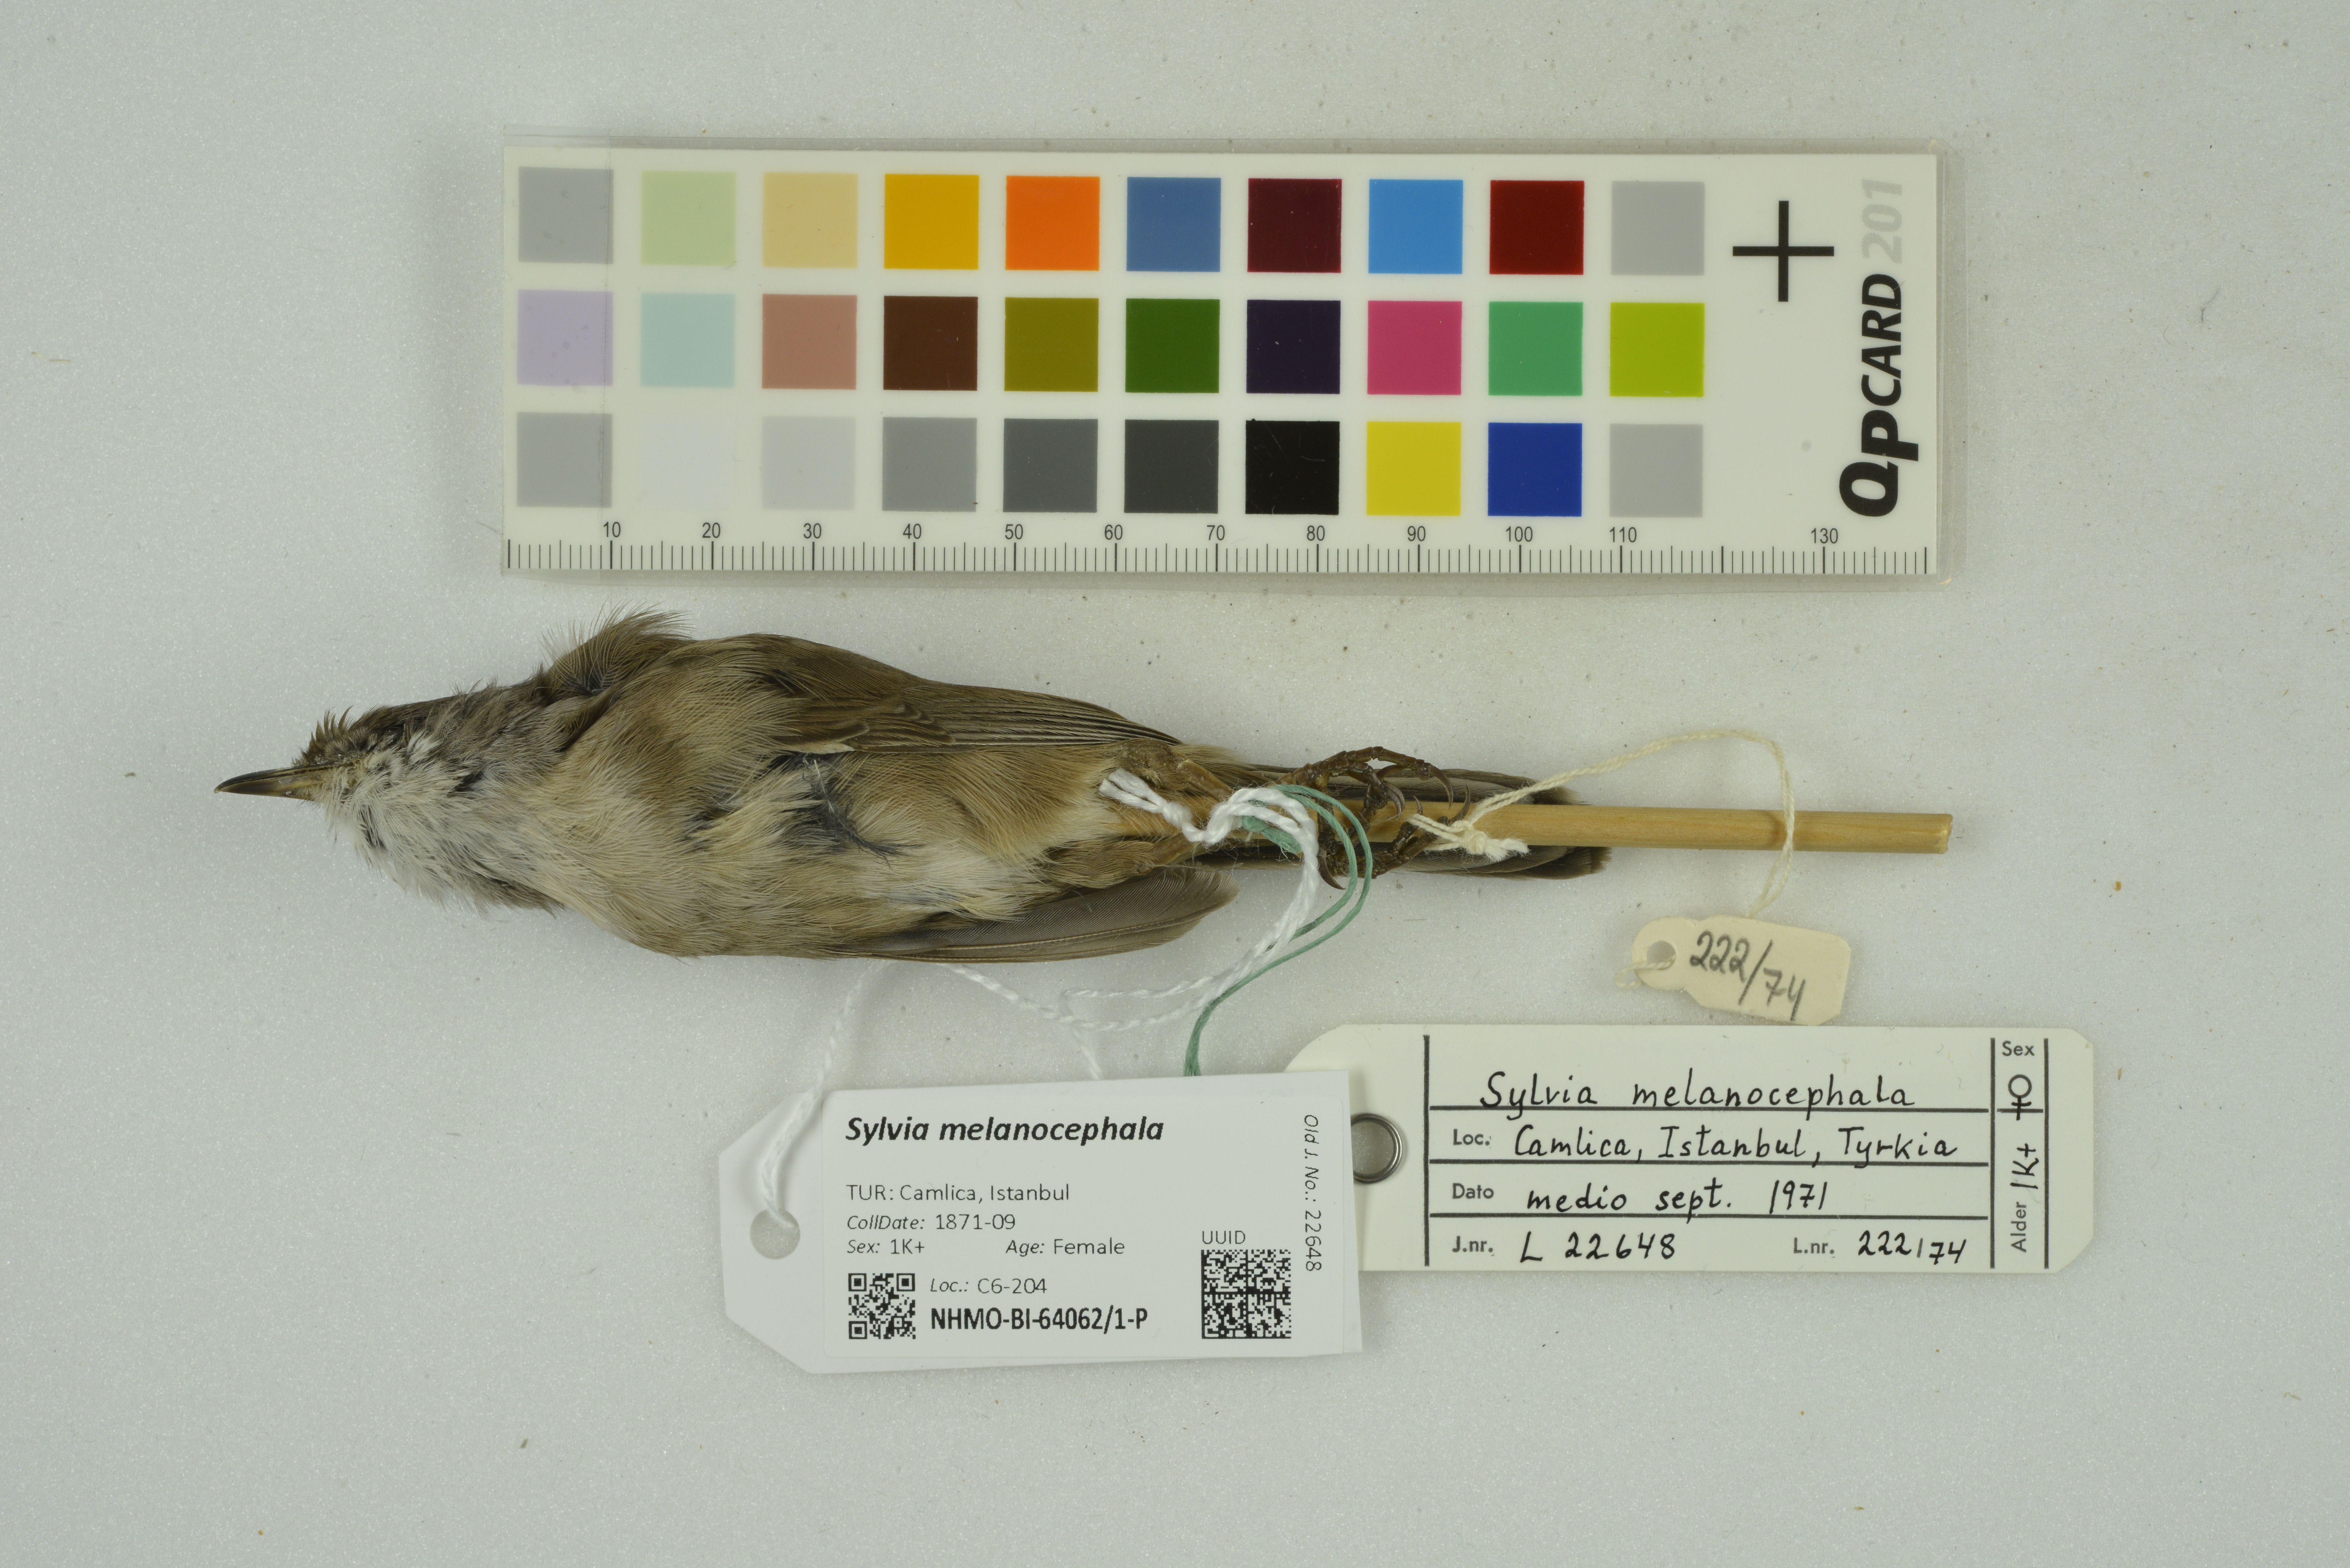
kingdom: Animalia
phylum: Chordata
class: Aves
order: Passeriformes
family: Sylviidae
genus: Curruca
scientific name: Curruca melanocephala
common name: Sardinian warbler
